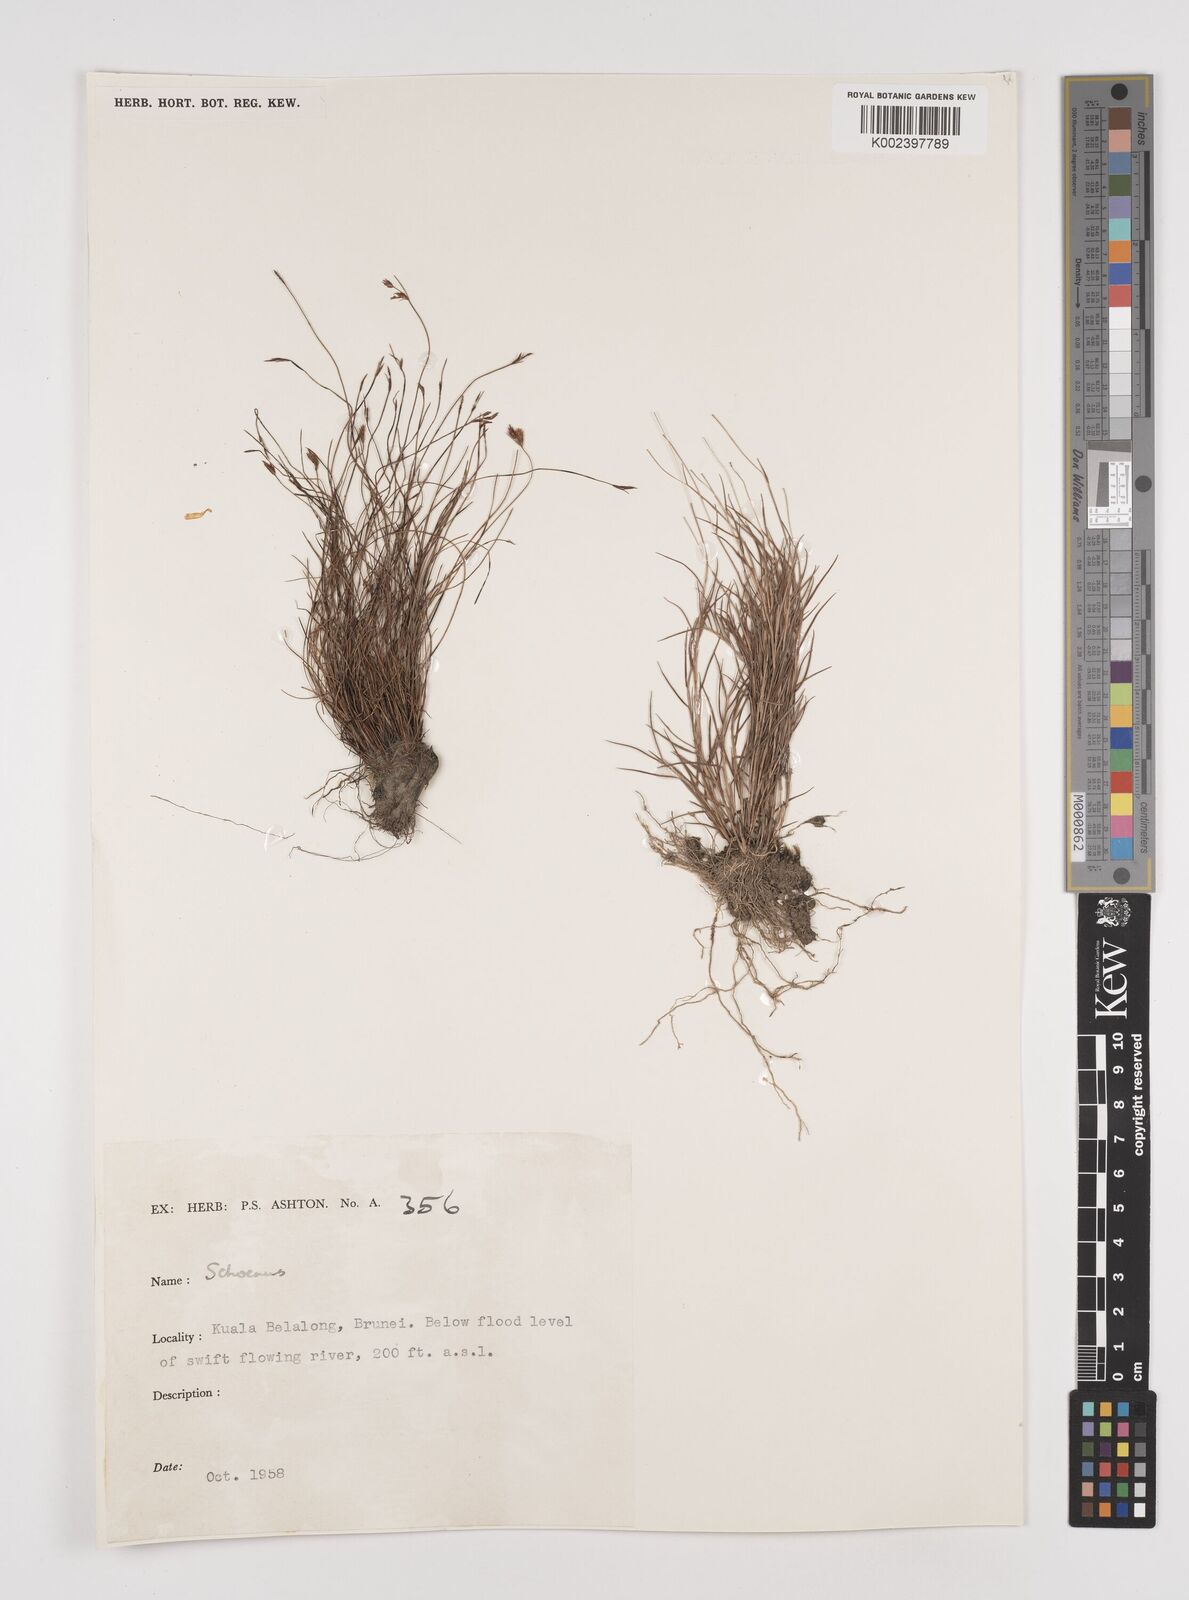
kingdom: Plantae
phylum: Tracheophyta
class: Liliopsida
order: Poales
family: Cyperaceae
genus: Schoenus
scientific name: Schoenus
